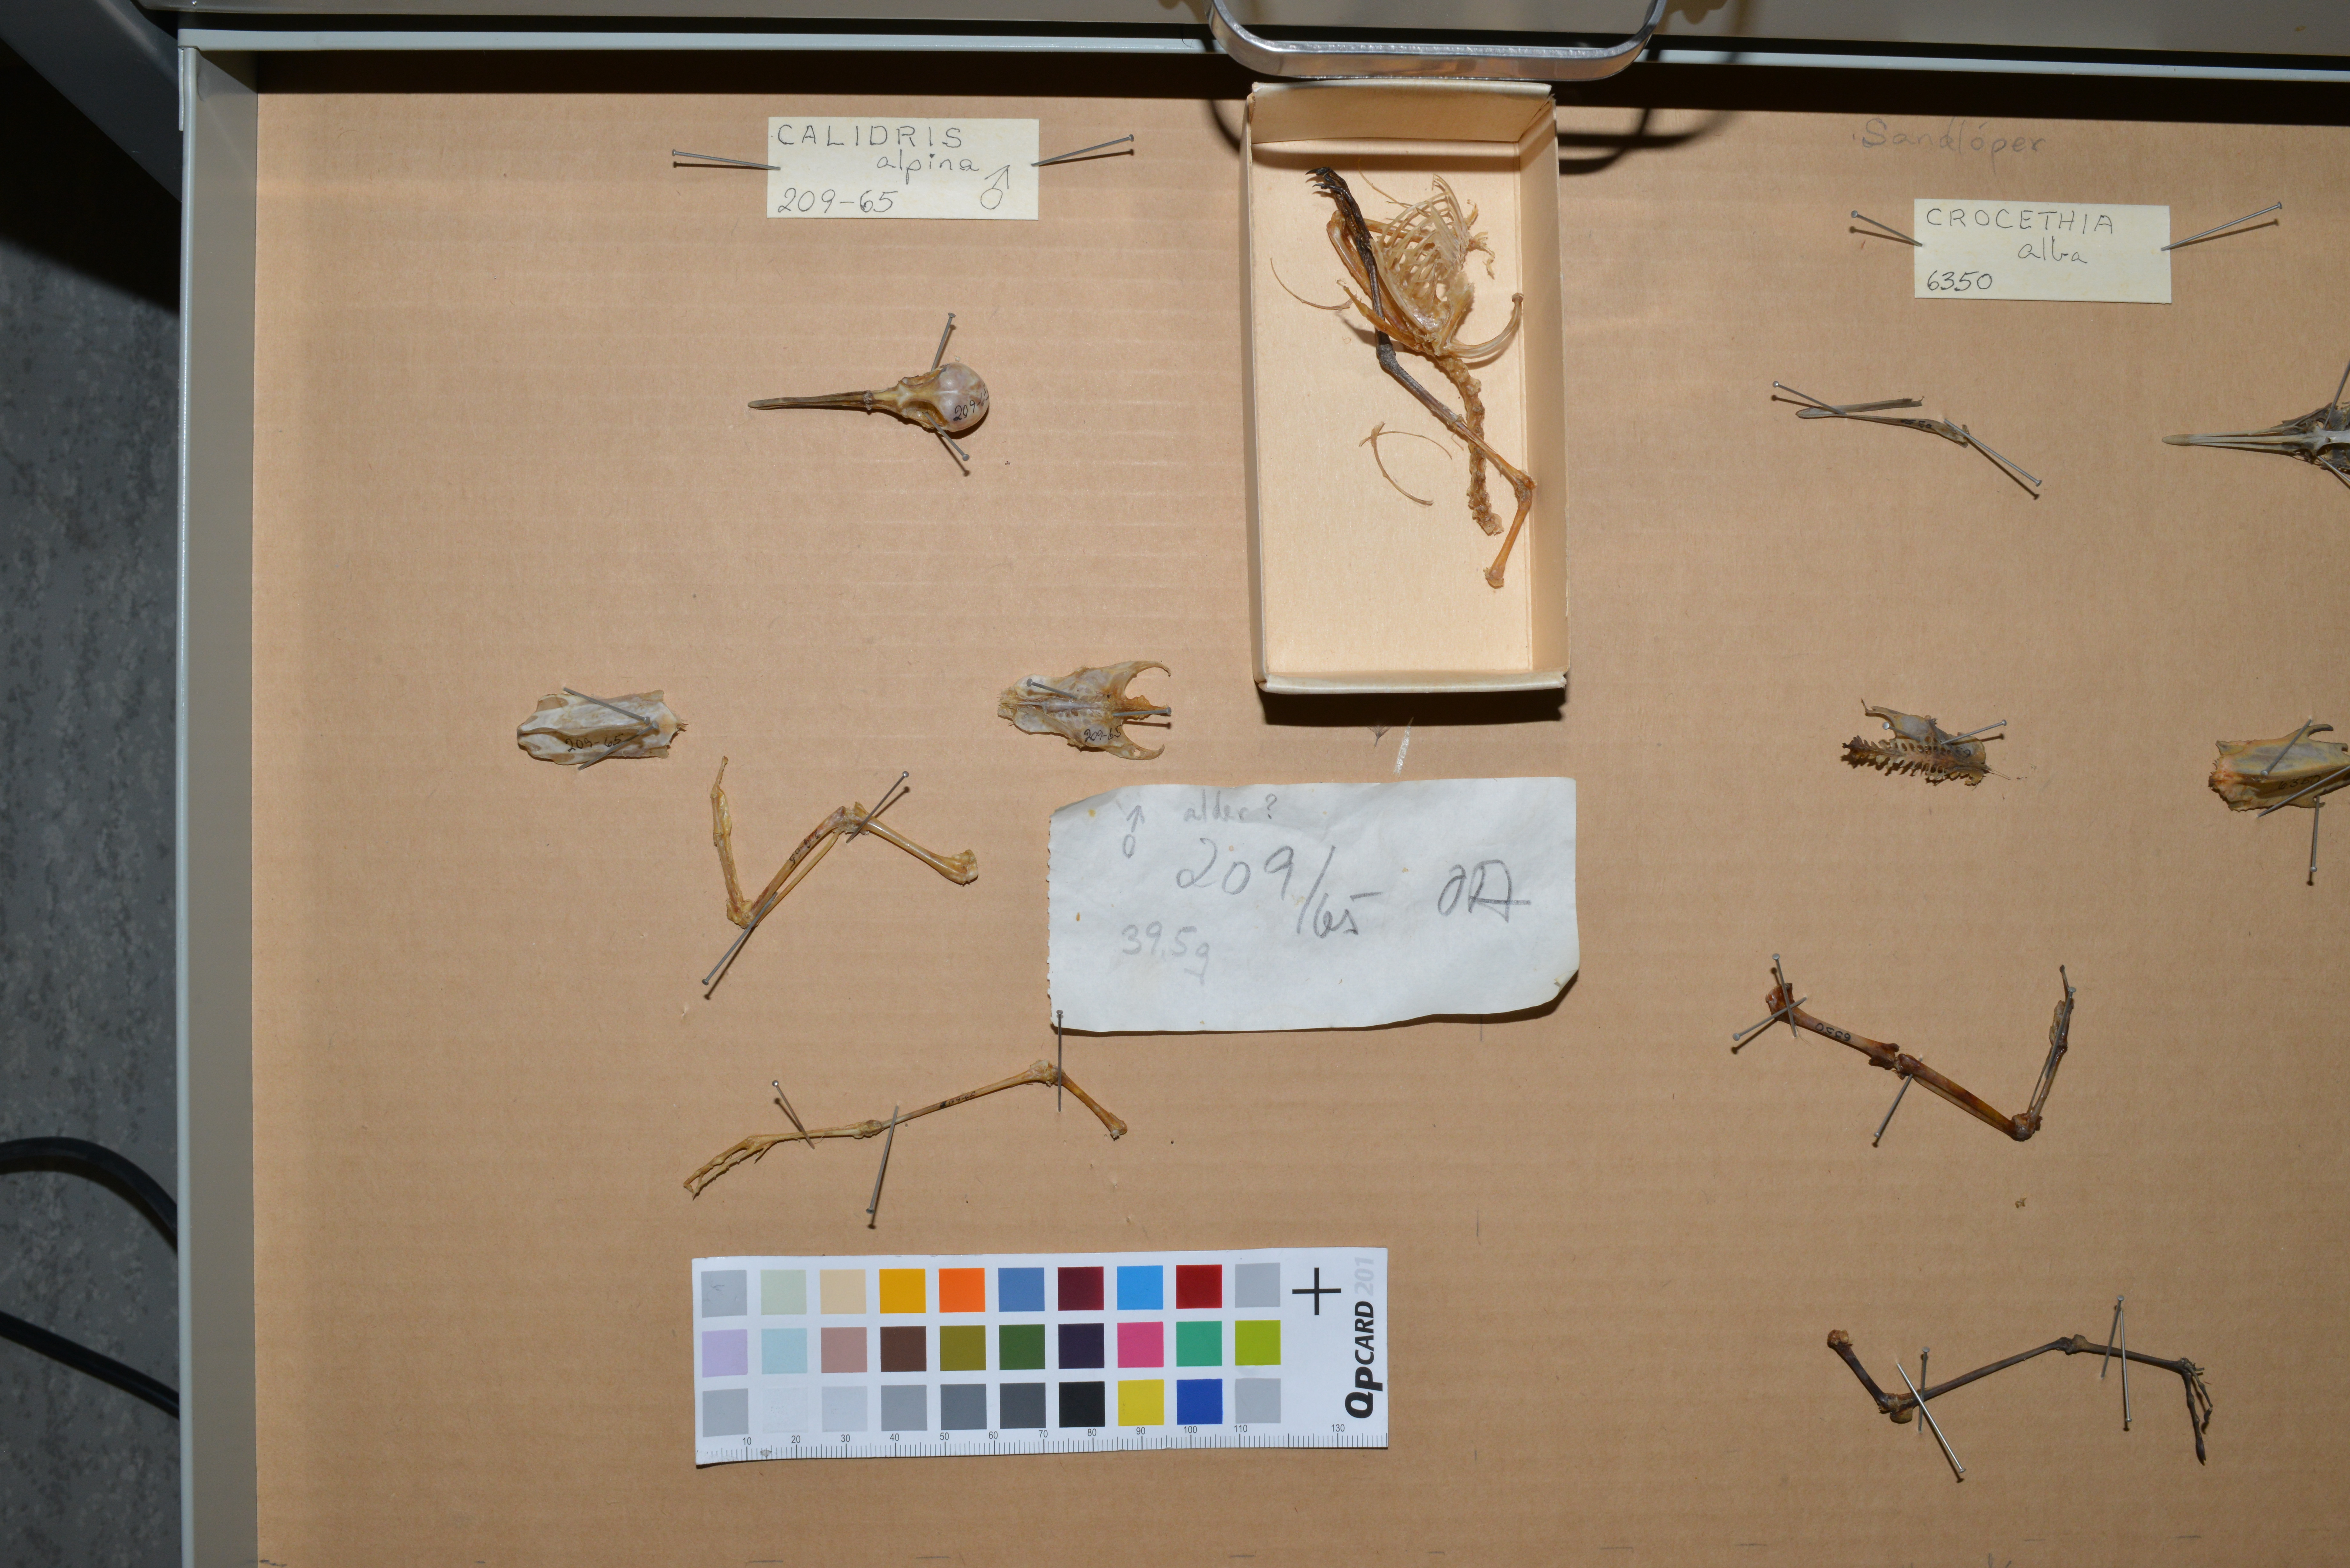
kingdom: Animalia
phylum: Chordata
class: Aves
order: Charadriiformes
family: Scolopacidae
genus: Calidris
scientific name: Calidris alpina
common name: Dunlin
